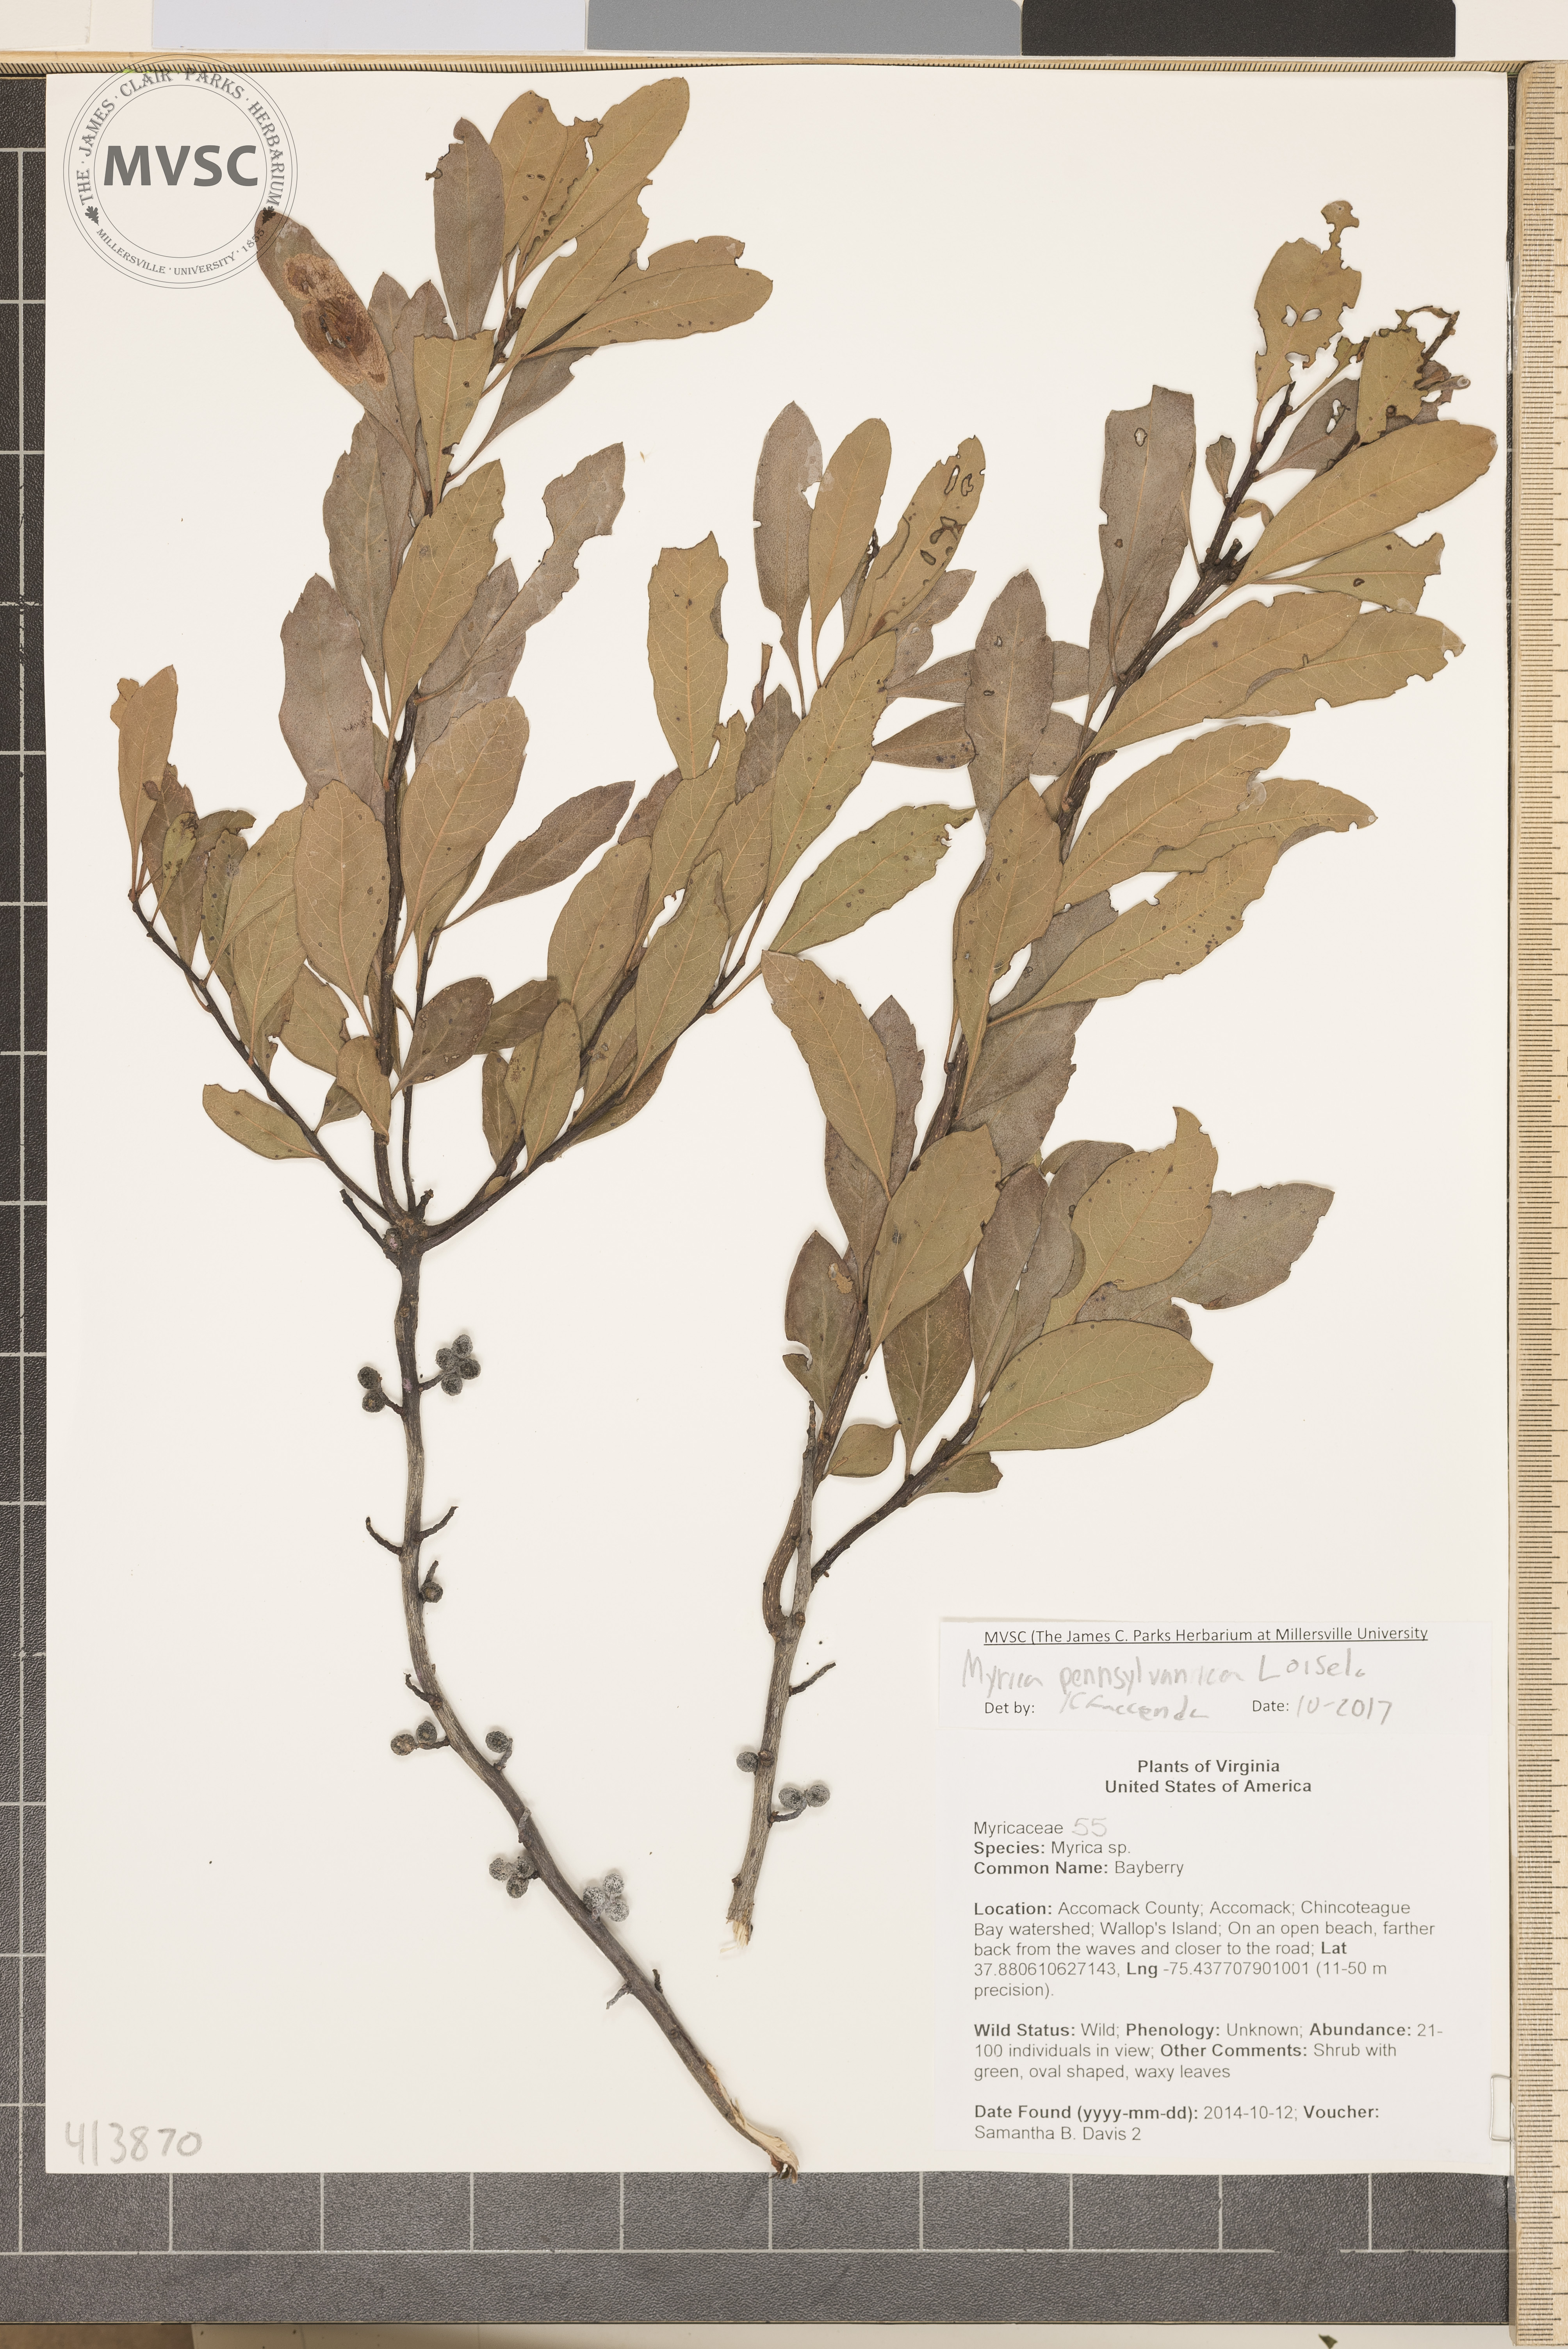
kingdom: Plantae
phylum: Tracheophyta
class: Magnoliopsida
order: Fagales
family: Myricaceae
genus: Morella
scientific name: Morella caroliniensis
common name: Bayberry
